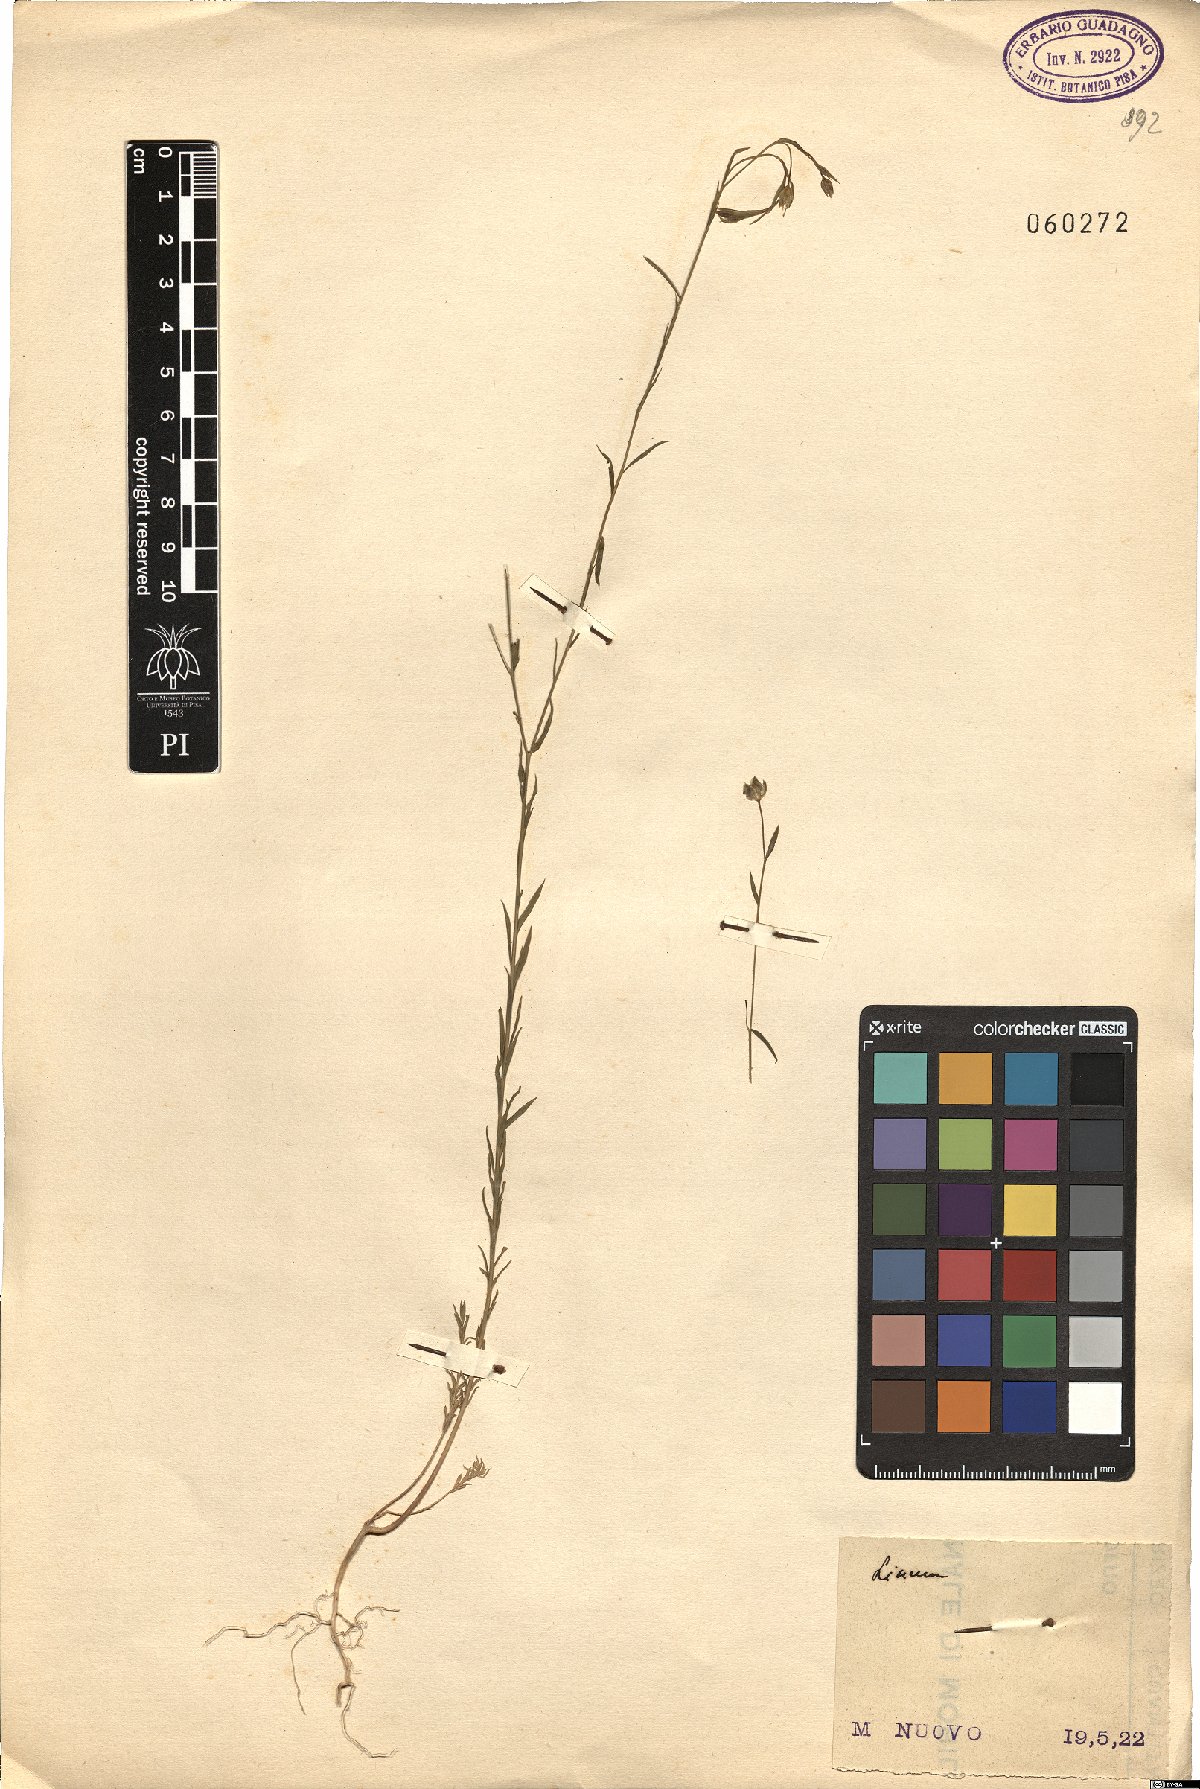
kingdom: Plantae
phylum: Tracheophyta
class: Magnoliopsida
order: Malpighiales
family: Linaceae
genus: Linum
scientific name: Linum
